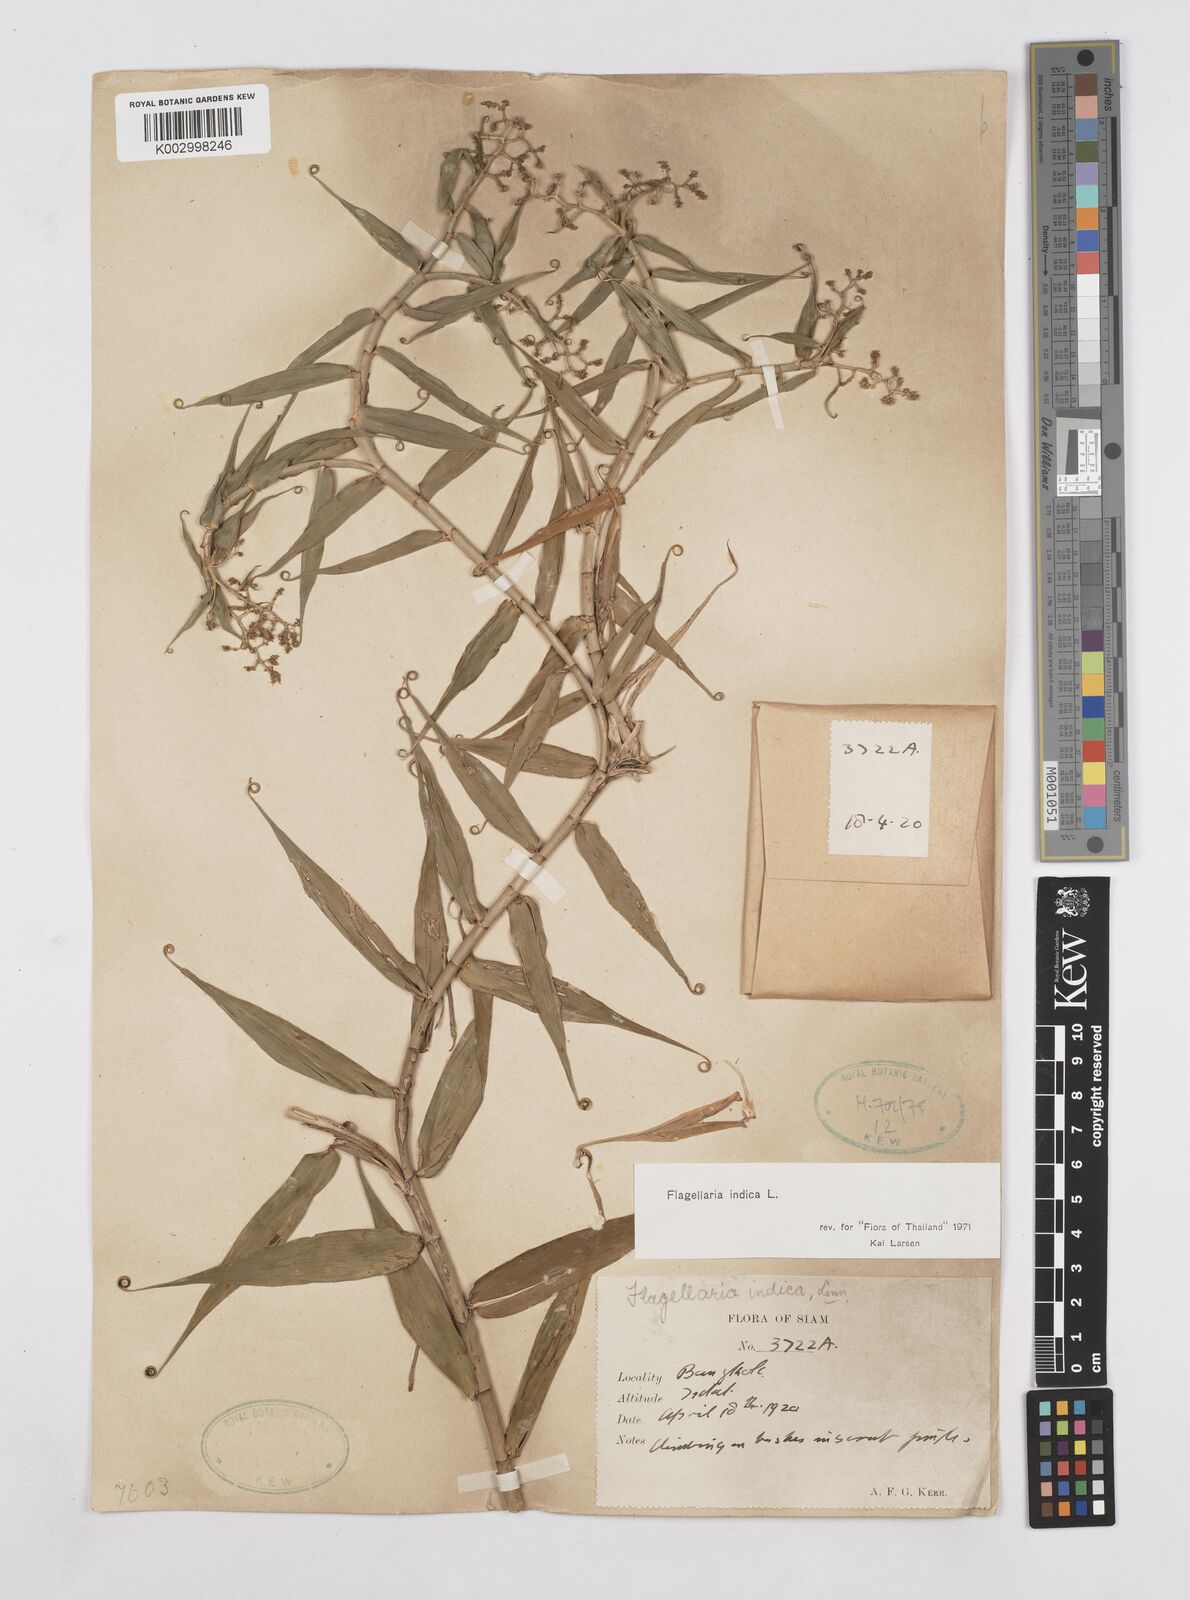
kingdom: Plantae
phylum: Tracheophyta
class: Liliopsida
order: Poales
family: Flagellariaceae
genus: Flagellaria
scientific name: Flagellaria indica
